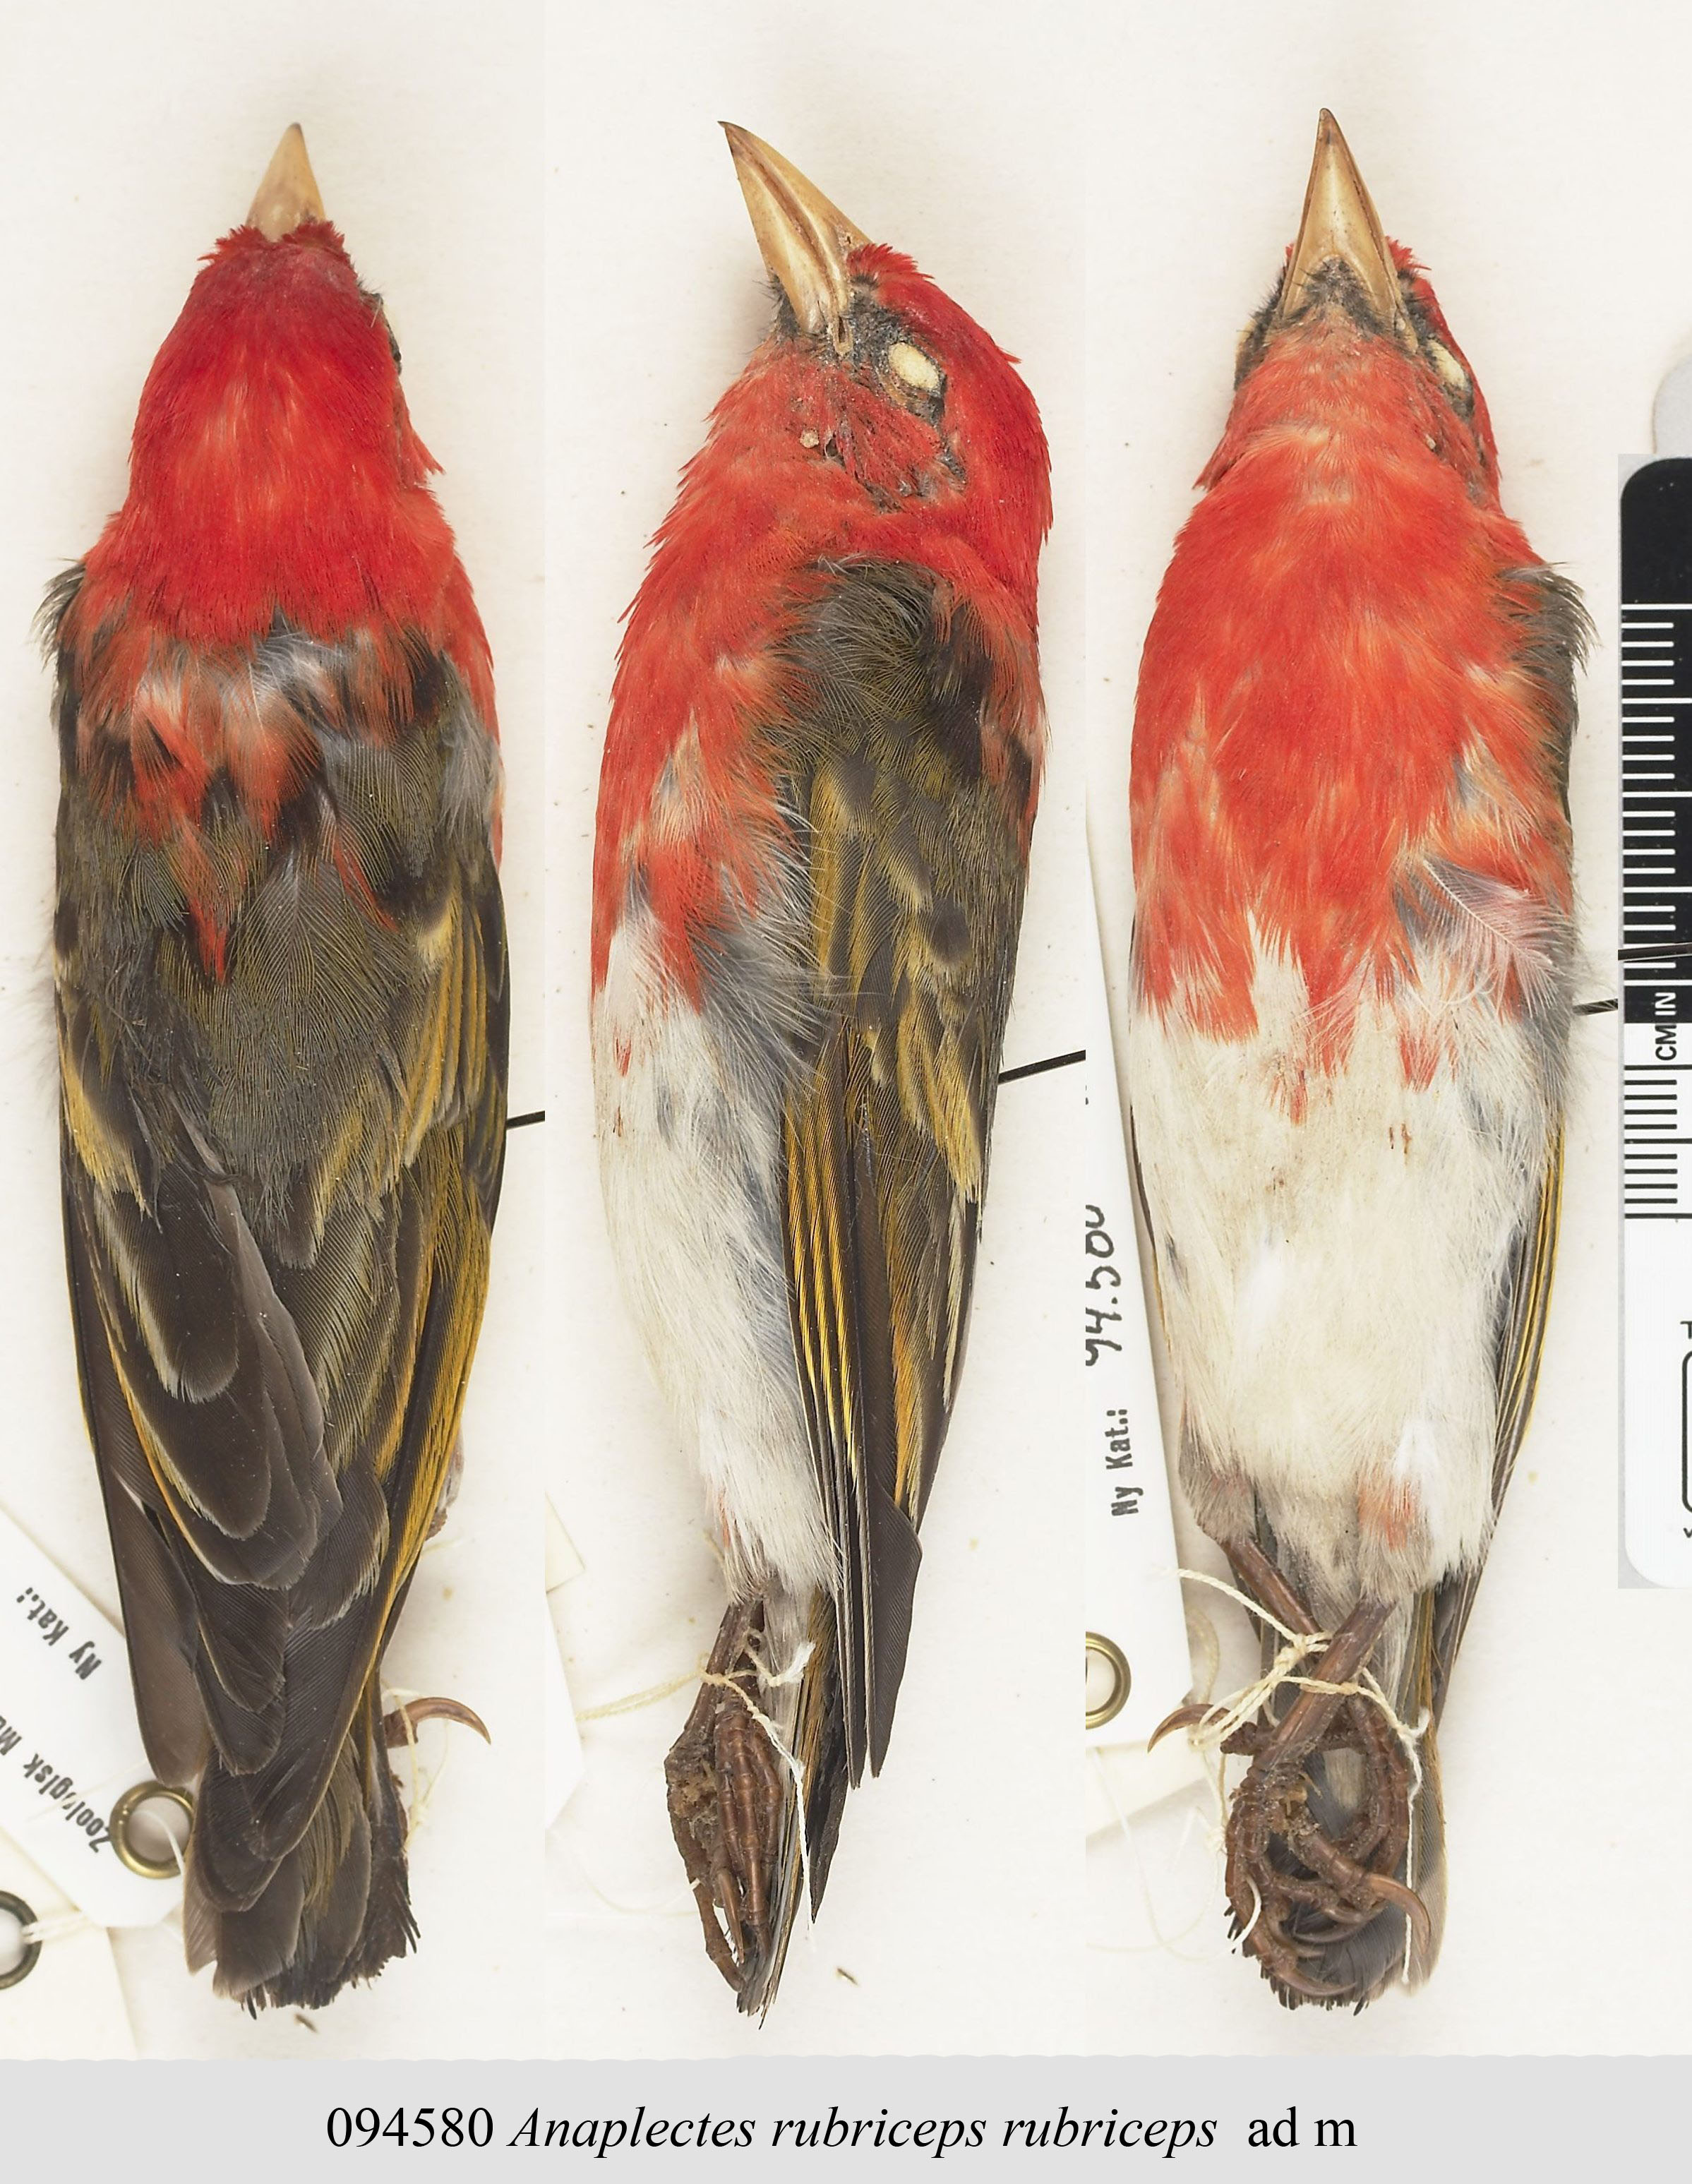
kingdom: Animalia
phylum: Chordata
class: Aves
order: Passeriformes
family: Ploceidae
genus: Anaplectes
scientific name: Anaplectes rubriceps
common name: Red-headed weaver
